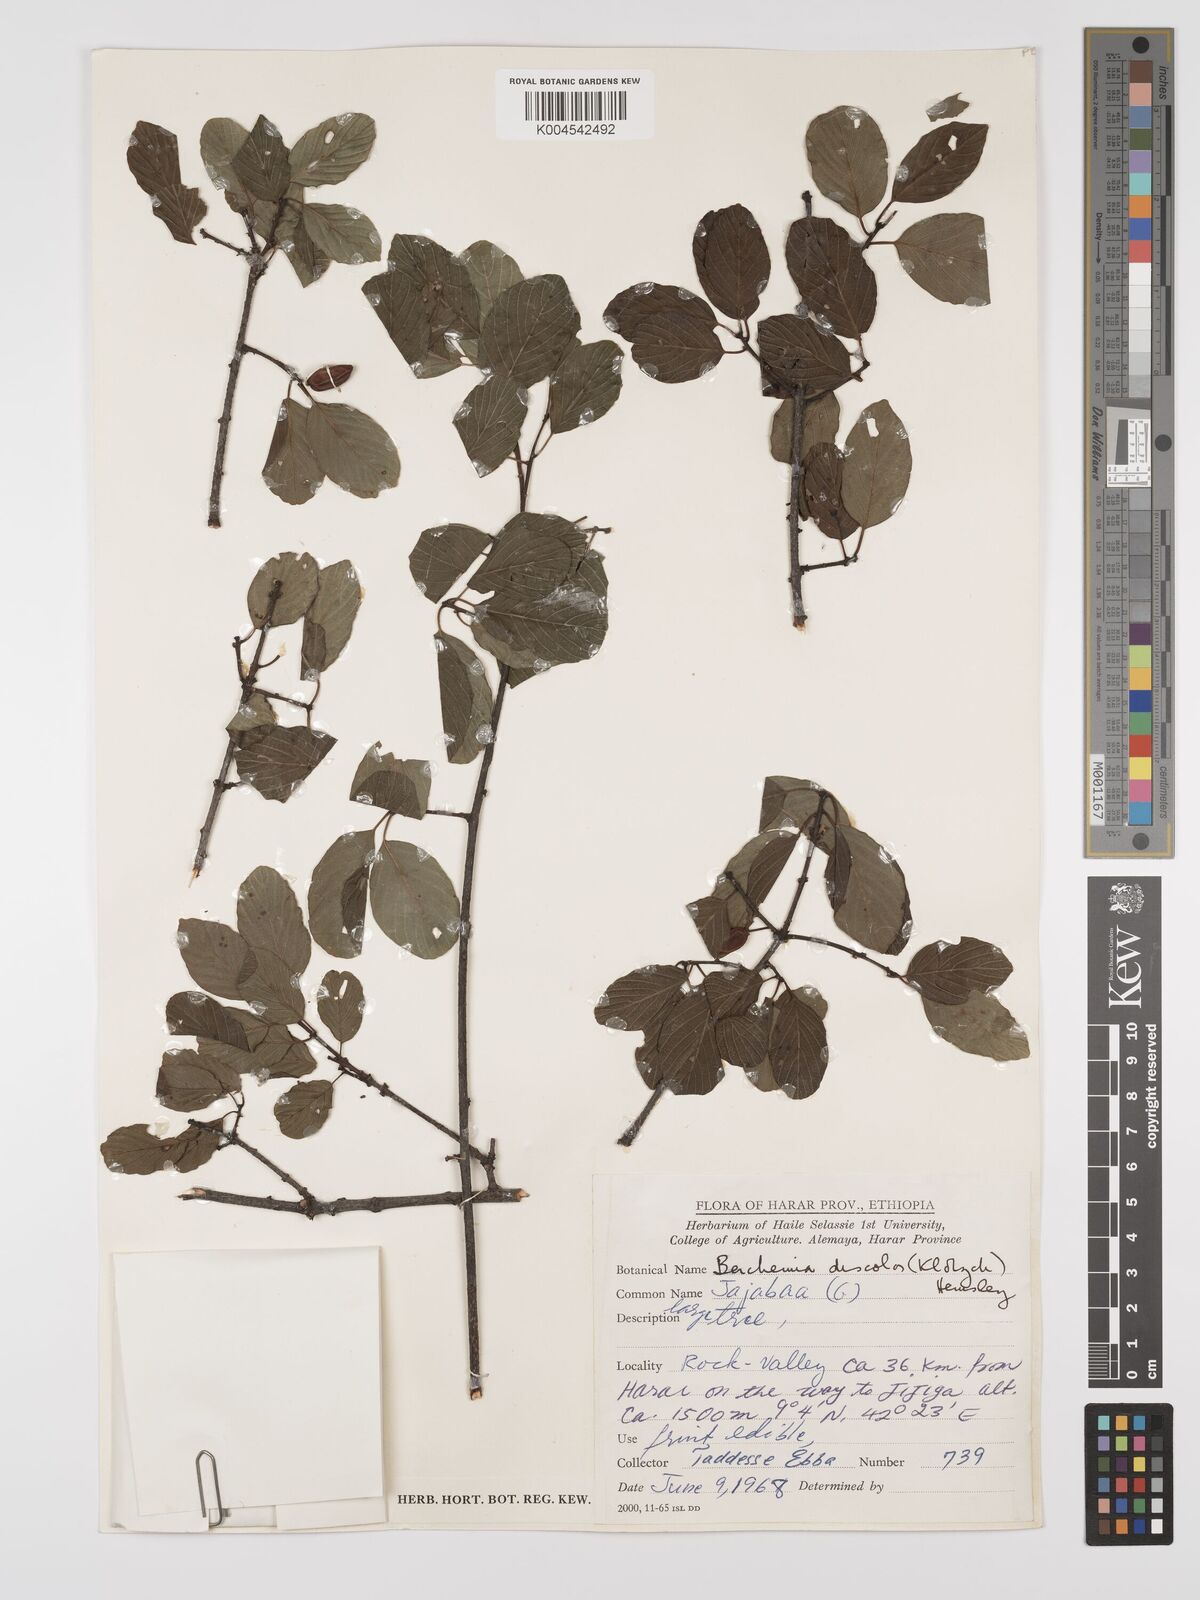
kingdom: Plantae
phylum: Tracheophyta
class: Magnoliopsida
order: Rosales
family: Rhamnaceae
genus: Phyllogeiton
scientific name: Phyllogeiton discolor
